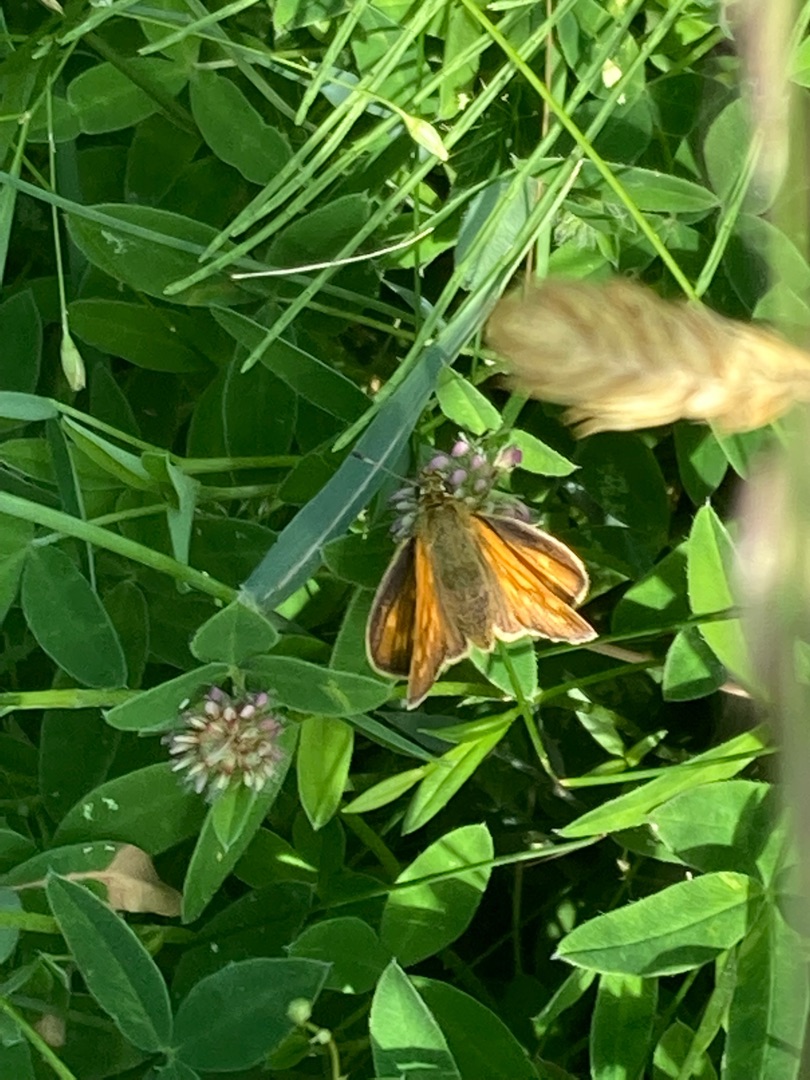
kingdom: Animalia
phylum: Arthropoda
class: Insecta
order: Lepidoptera
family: Hesperiidae
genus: Ochlodes
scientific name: Ochlodes venata
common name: Stor bredpande
